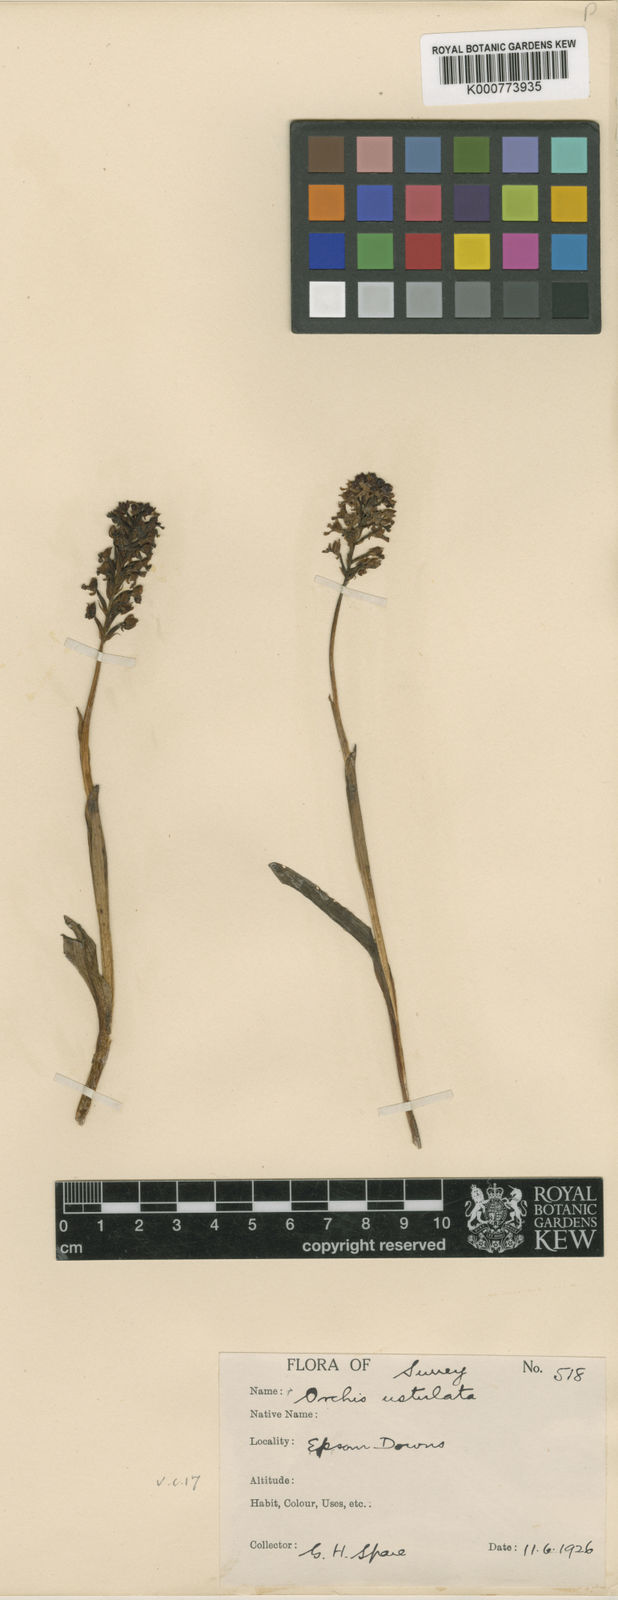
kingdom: Plantae
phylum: Tracheophyta
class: Liliopsida
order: Asparagales
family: Orchidaceae
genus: Neotinea
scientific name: Neotinea ustulata
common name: Burnt orchid
